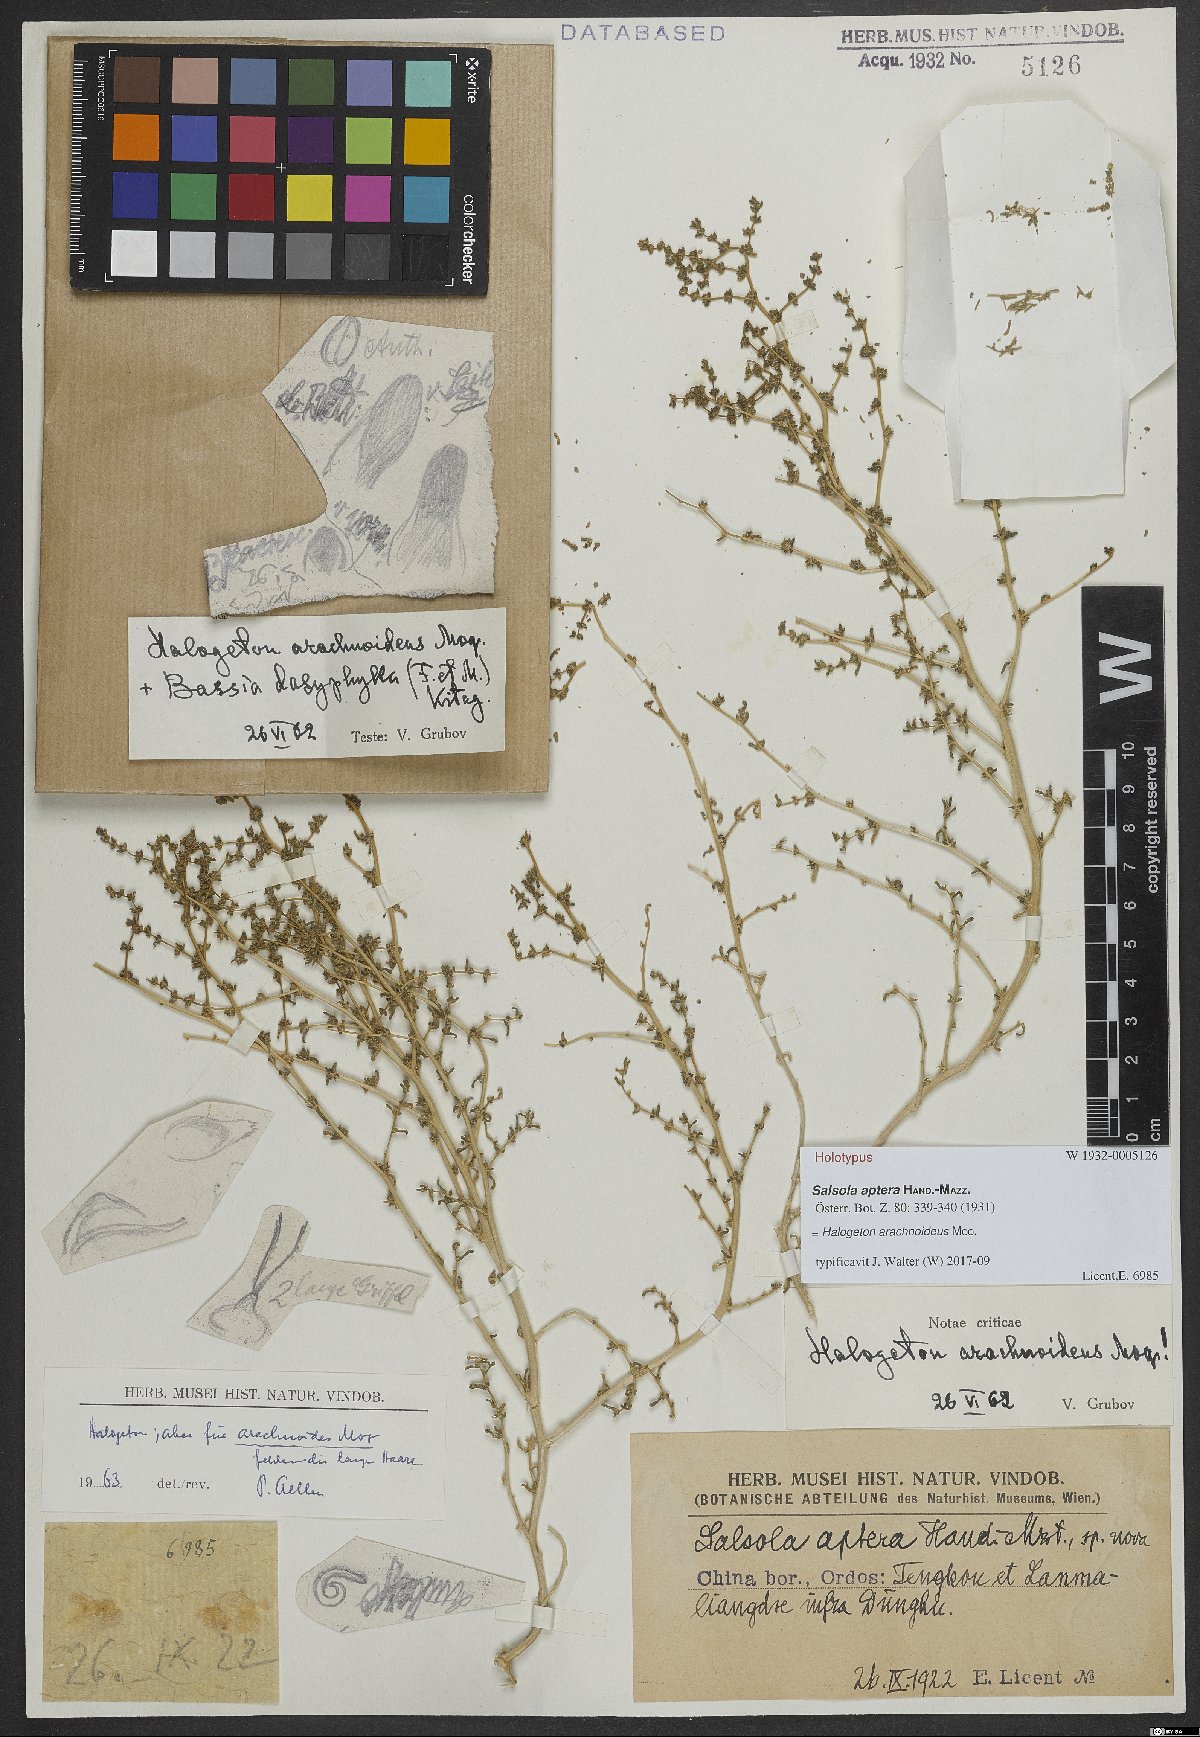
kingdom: Plantae
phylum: Tracheophyta
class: Magnoliopsida
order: Caryophyllales
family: Amaranthaceae
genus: Halogeton
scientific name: Halogeton arachnoideus
